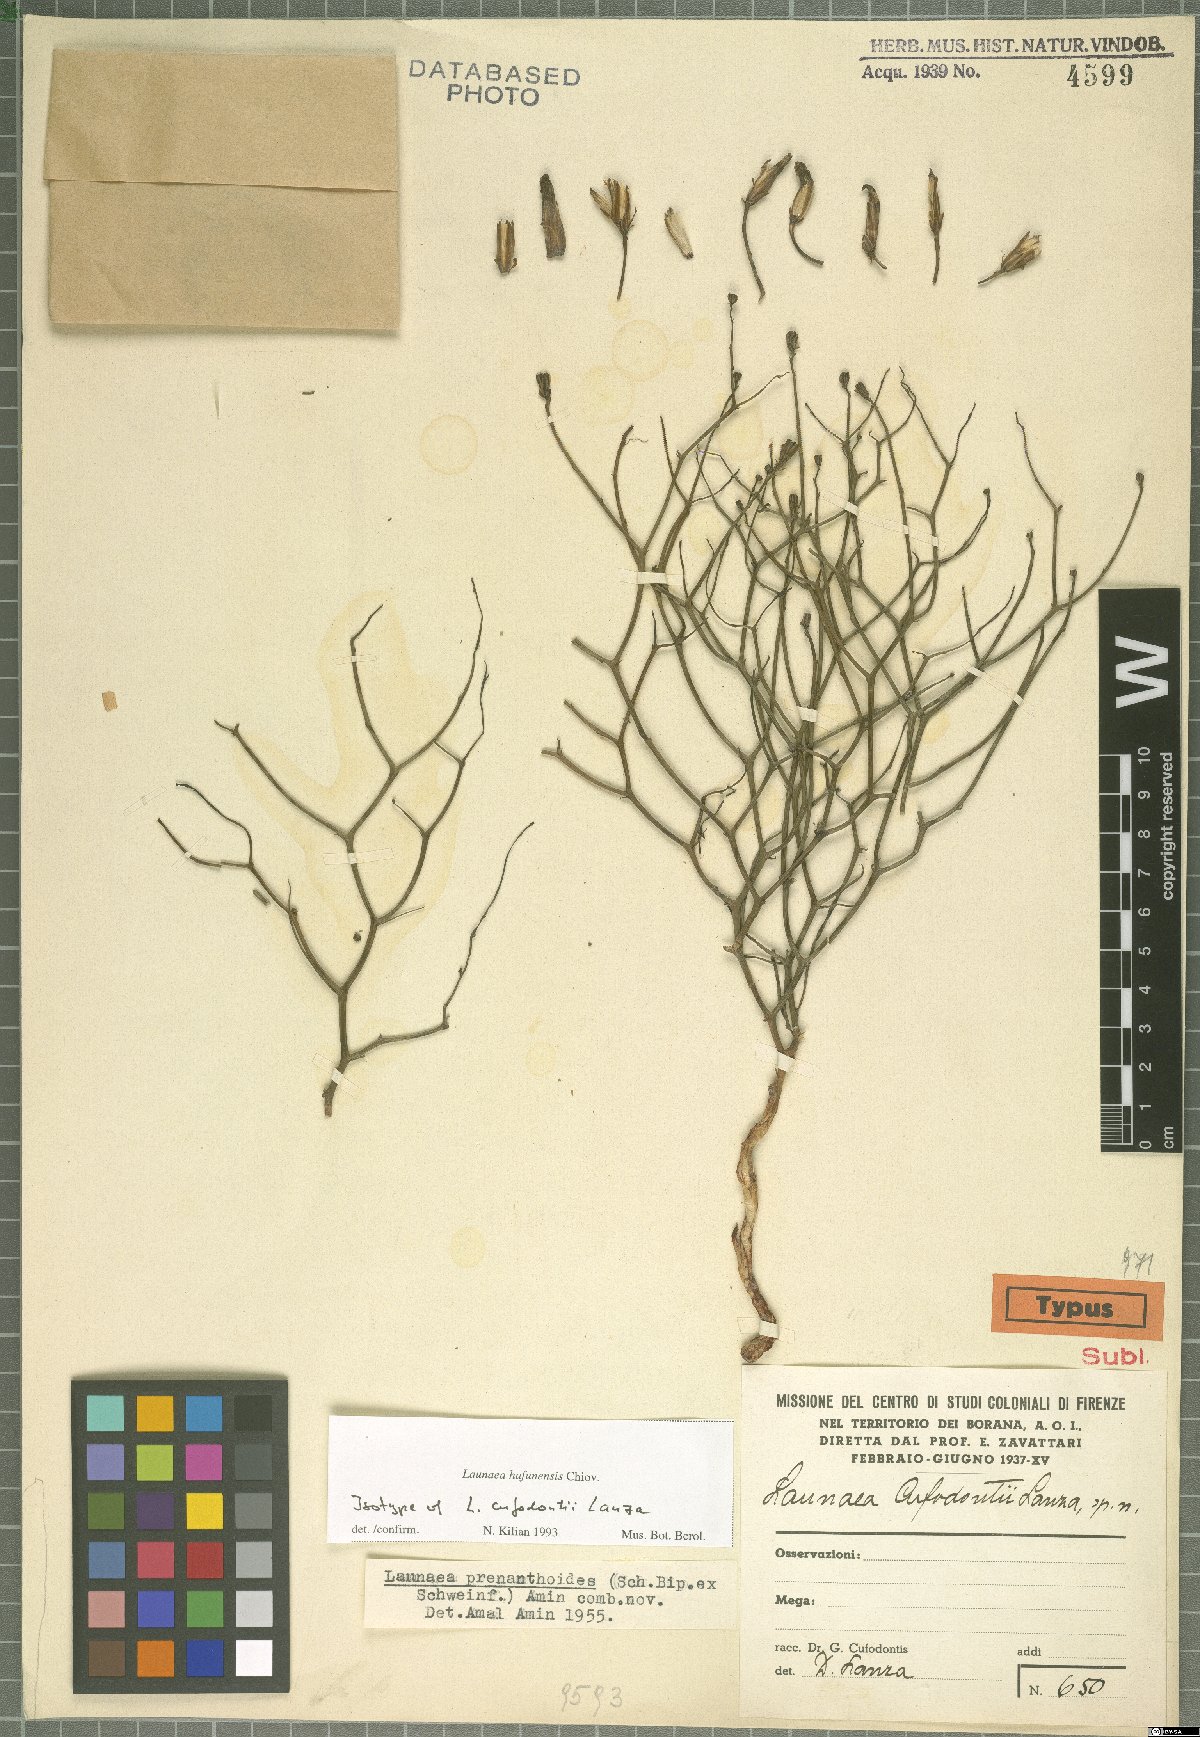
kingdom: Plantae
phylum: Tracheophyta
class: Magnoliopsida
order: Asterales
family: Asteraceae
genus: Launaea
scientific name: Launaea hafunensis
